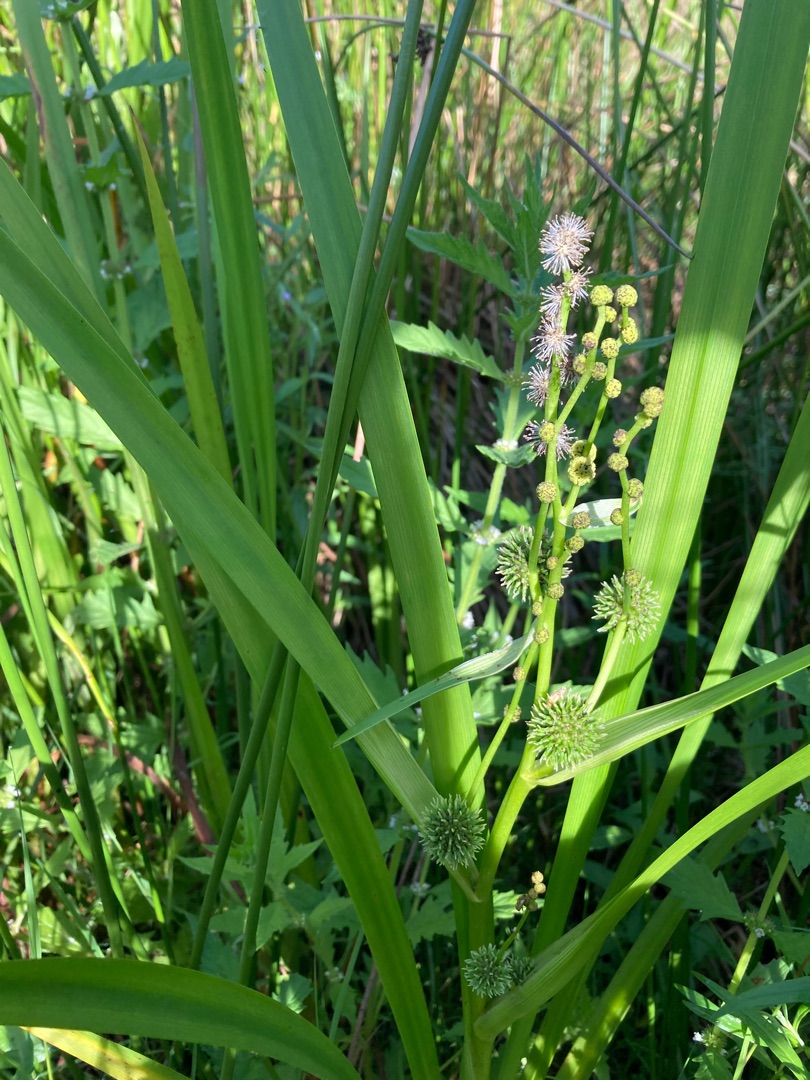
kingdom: Plantae
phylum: Tracheophyta
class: Liliopsida
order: Poales
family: Typhaceae
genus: Sparganium
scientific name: Sparganium erectum
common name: Grenet pindsvineknop
